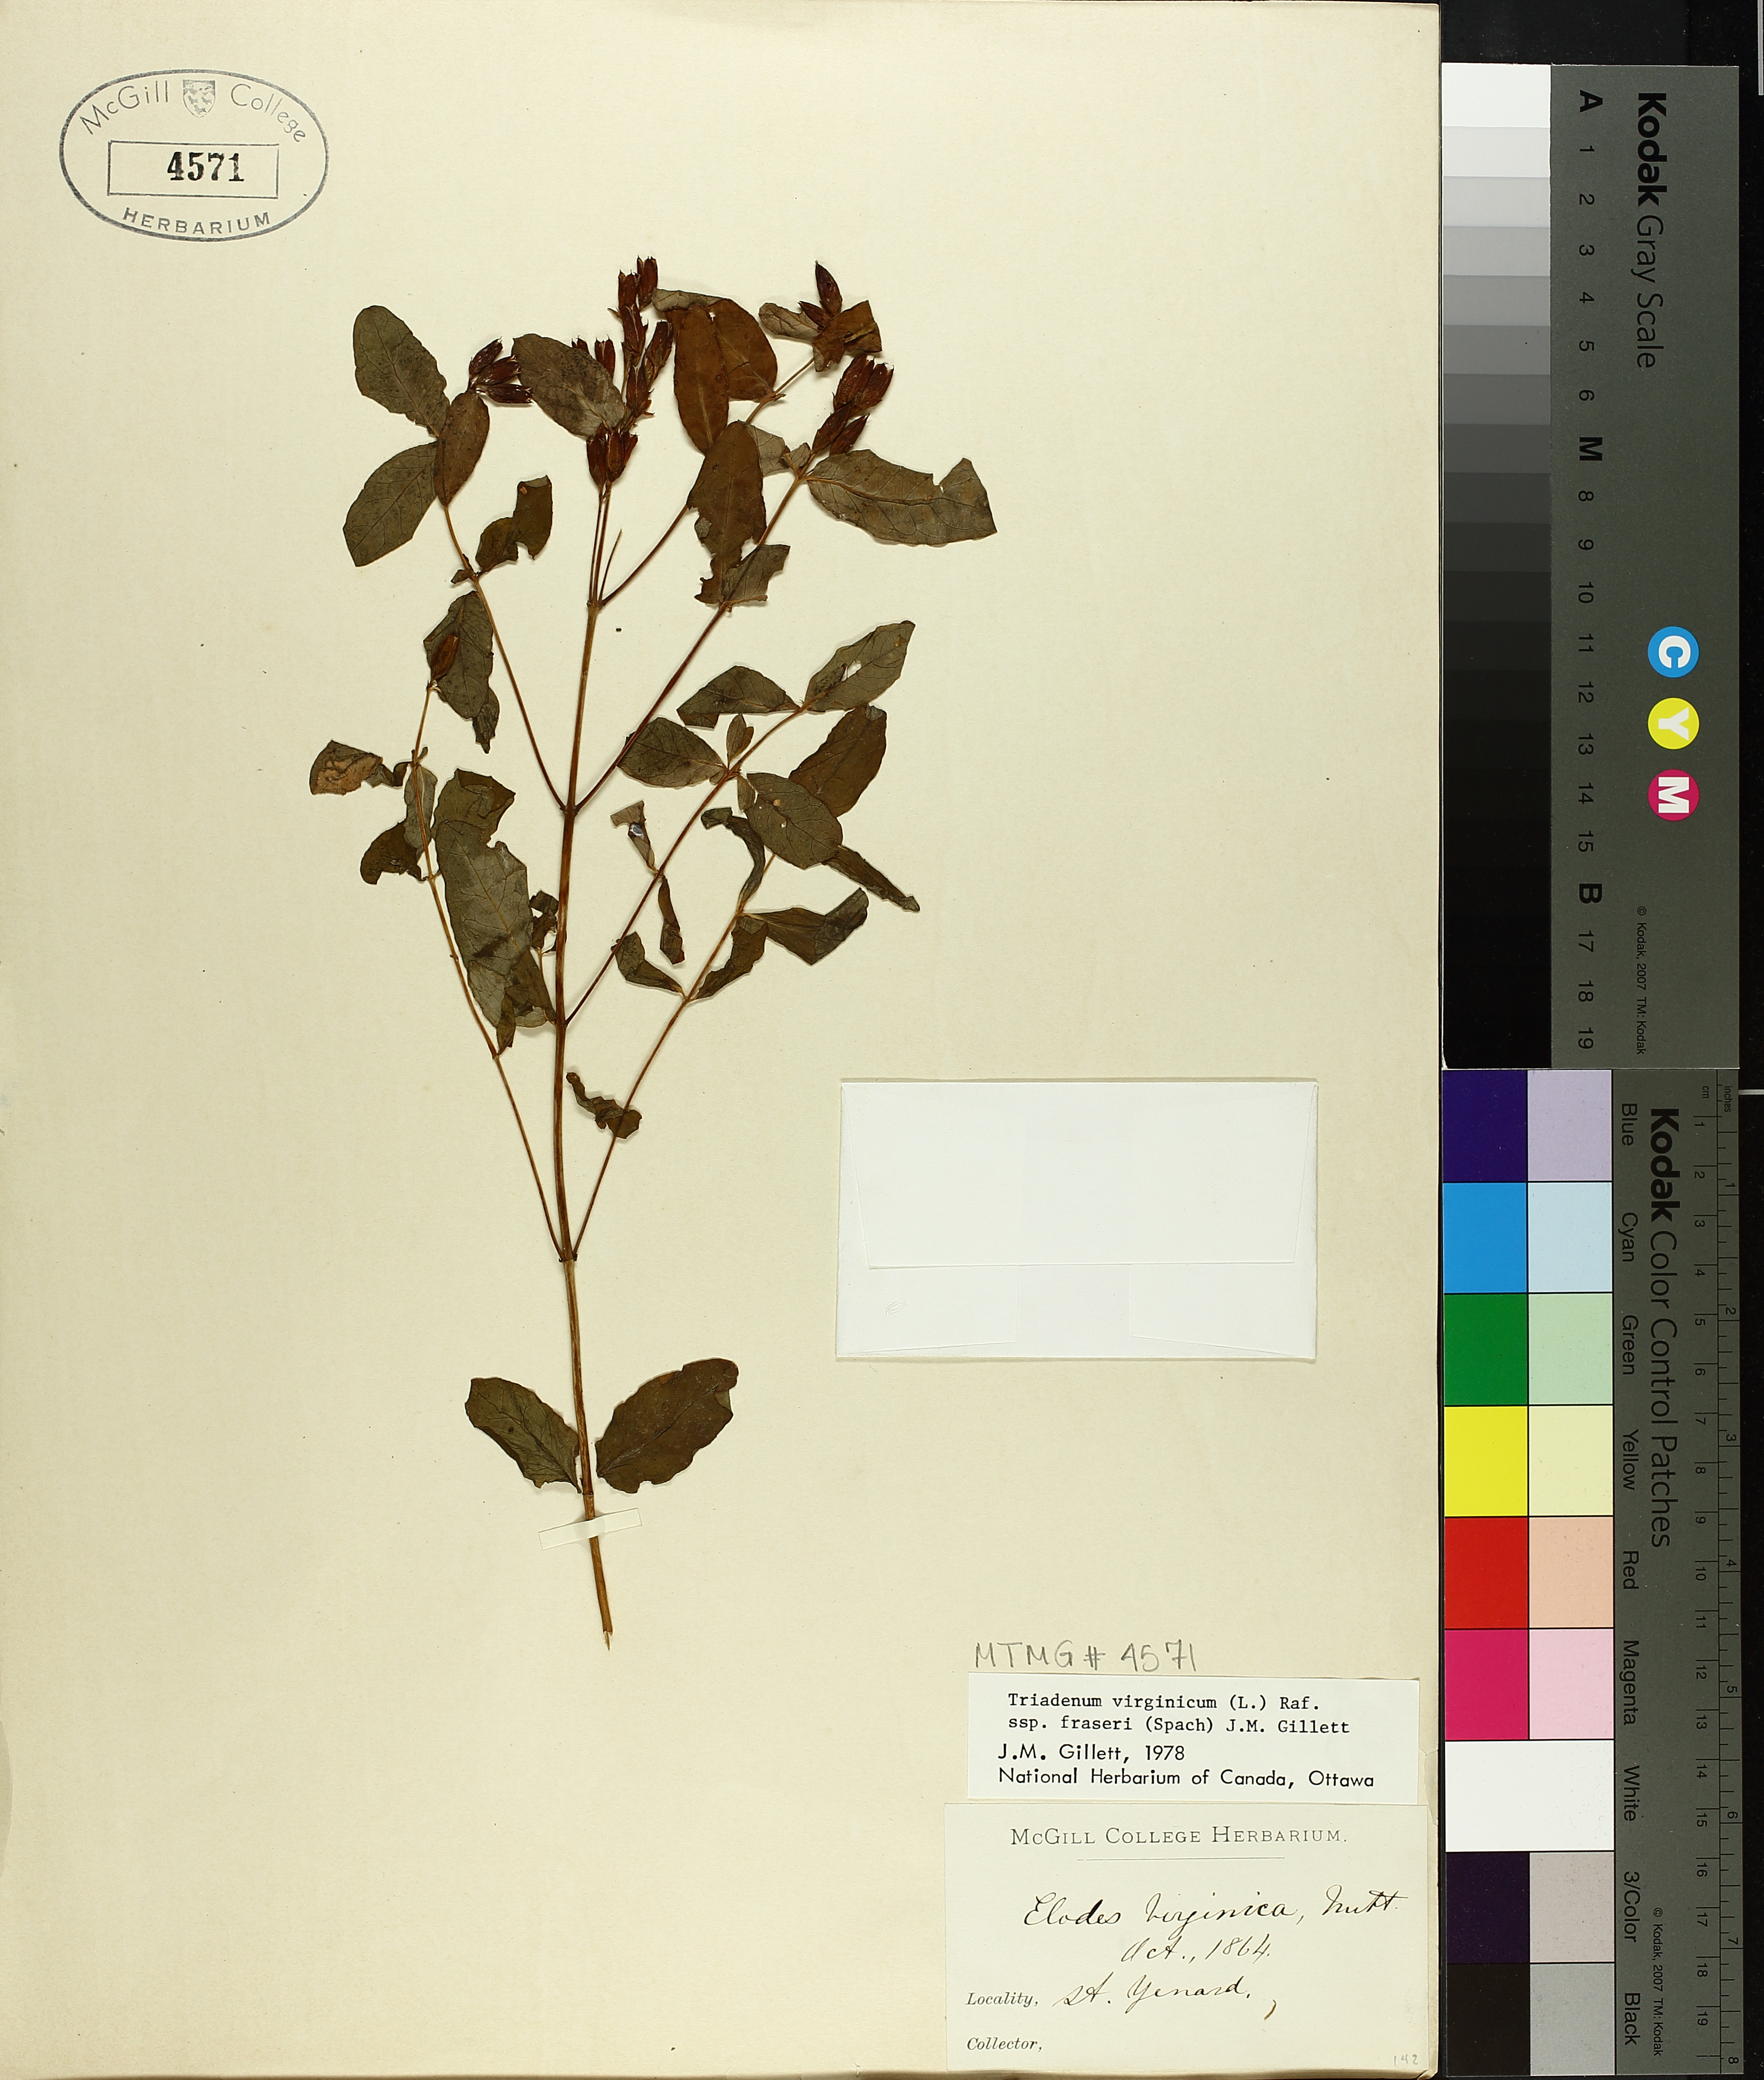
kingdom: Plantae
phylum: Tracheophyta
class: Magnoliopsida
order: Malpighiales
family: Hypericaceae
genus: Triadenum
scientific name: Triadenum fraseri
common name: Fraser's marsh st. johnswort
